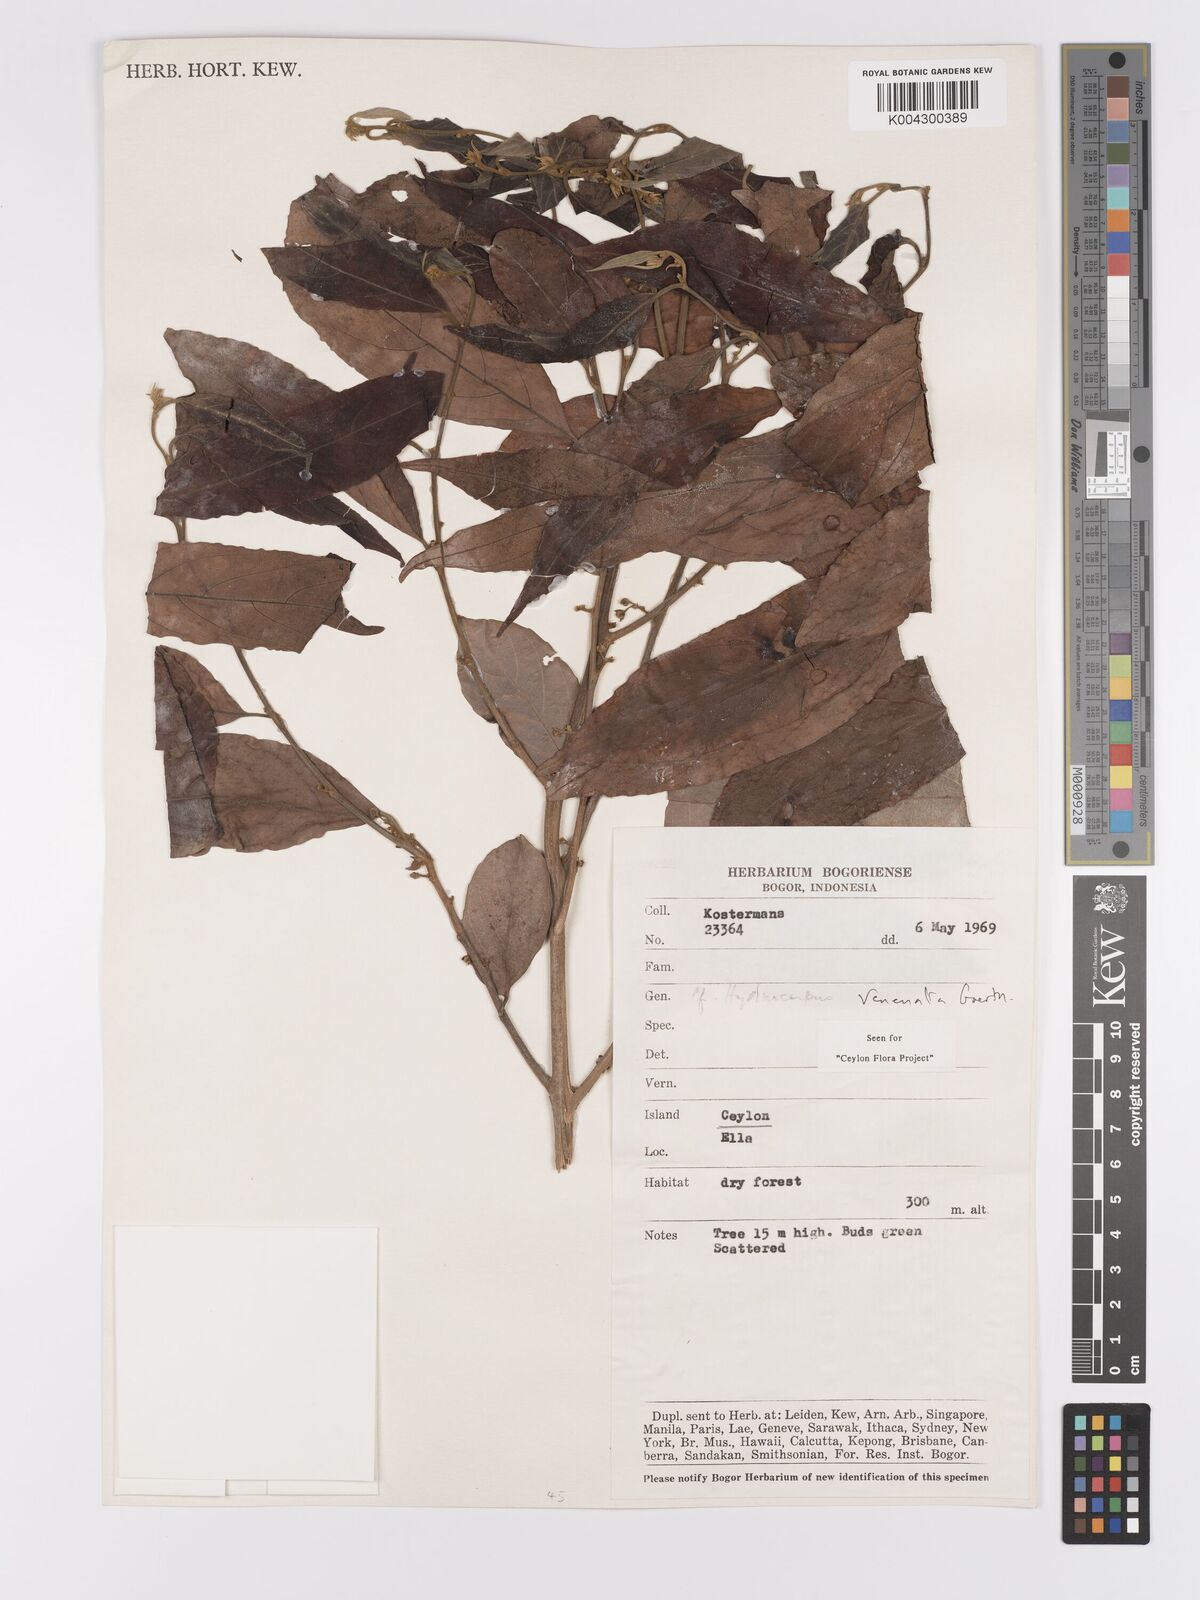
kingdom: Plantae
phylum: Tracheophyta
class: Magnoliopsida
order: Malpighiales
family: Achariaceae
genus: Hydnocarpus
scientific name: Hydnocarpus venenatus
